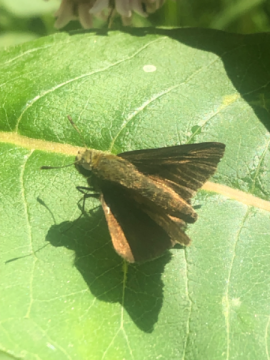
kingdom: Animalia
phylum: Arthropoda
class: Insecta
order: Lepidoptera
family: Hesperiidae
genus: Euphyes
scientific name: Euphyes vestris
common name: Dun Skipper
